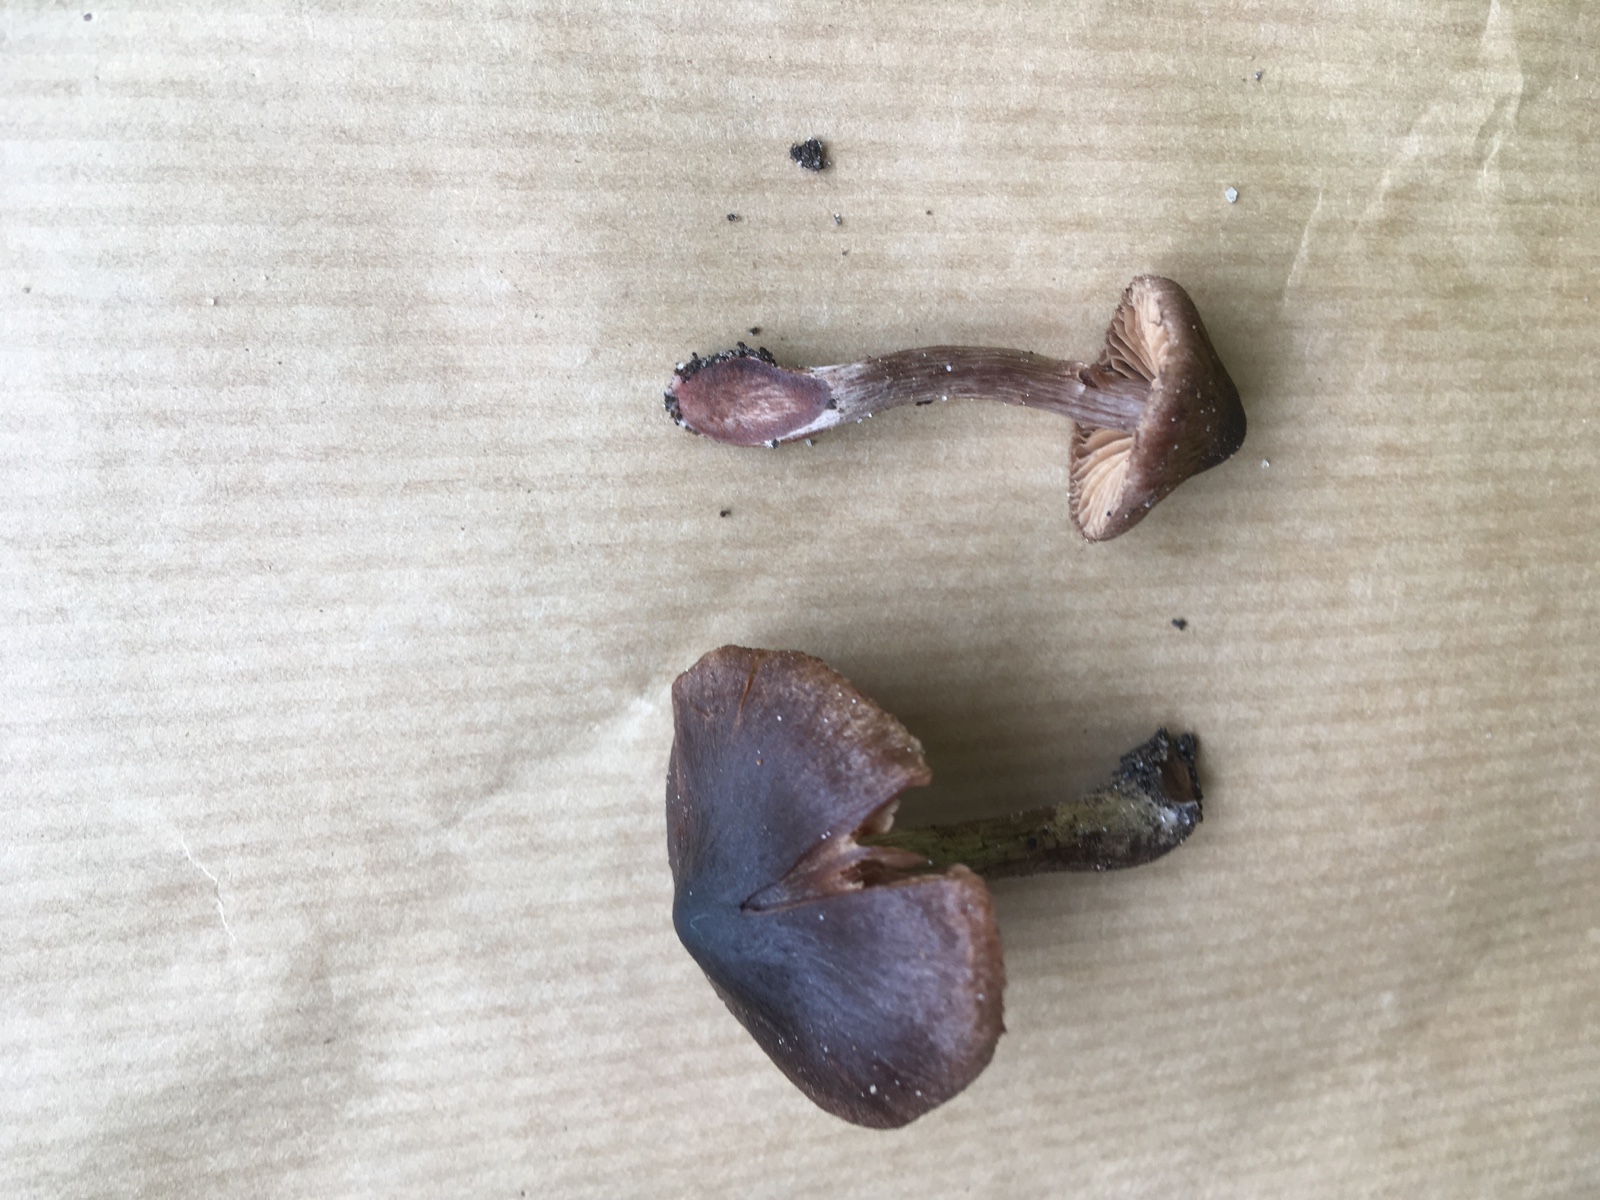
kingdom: Fungi
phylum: Basidiomycota
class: Agaricomycetes
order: Agaricales
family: Cortinariaceae
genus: Cortinarius
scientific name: Cortinarius vernus
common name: sommer-slørhat
